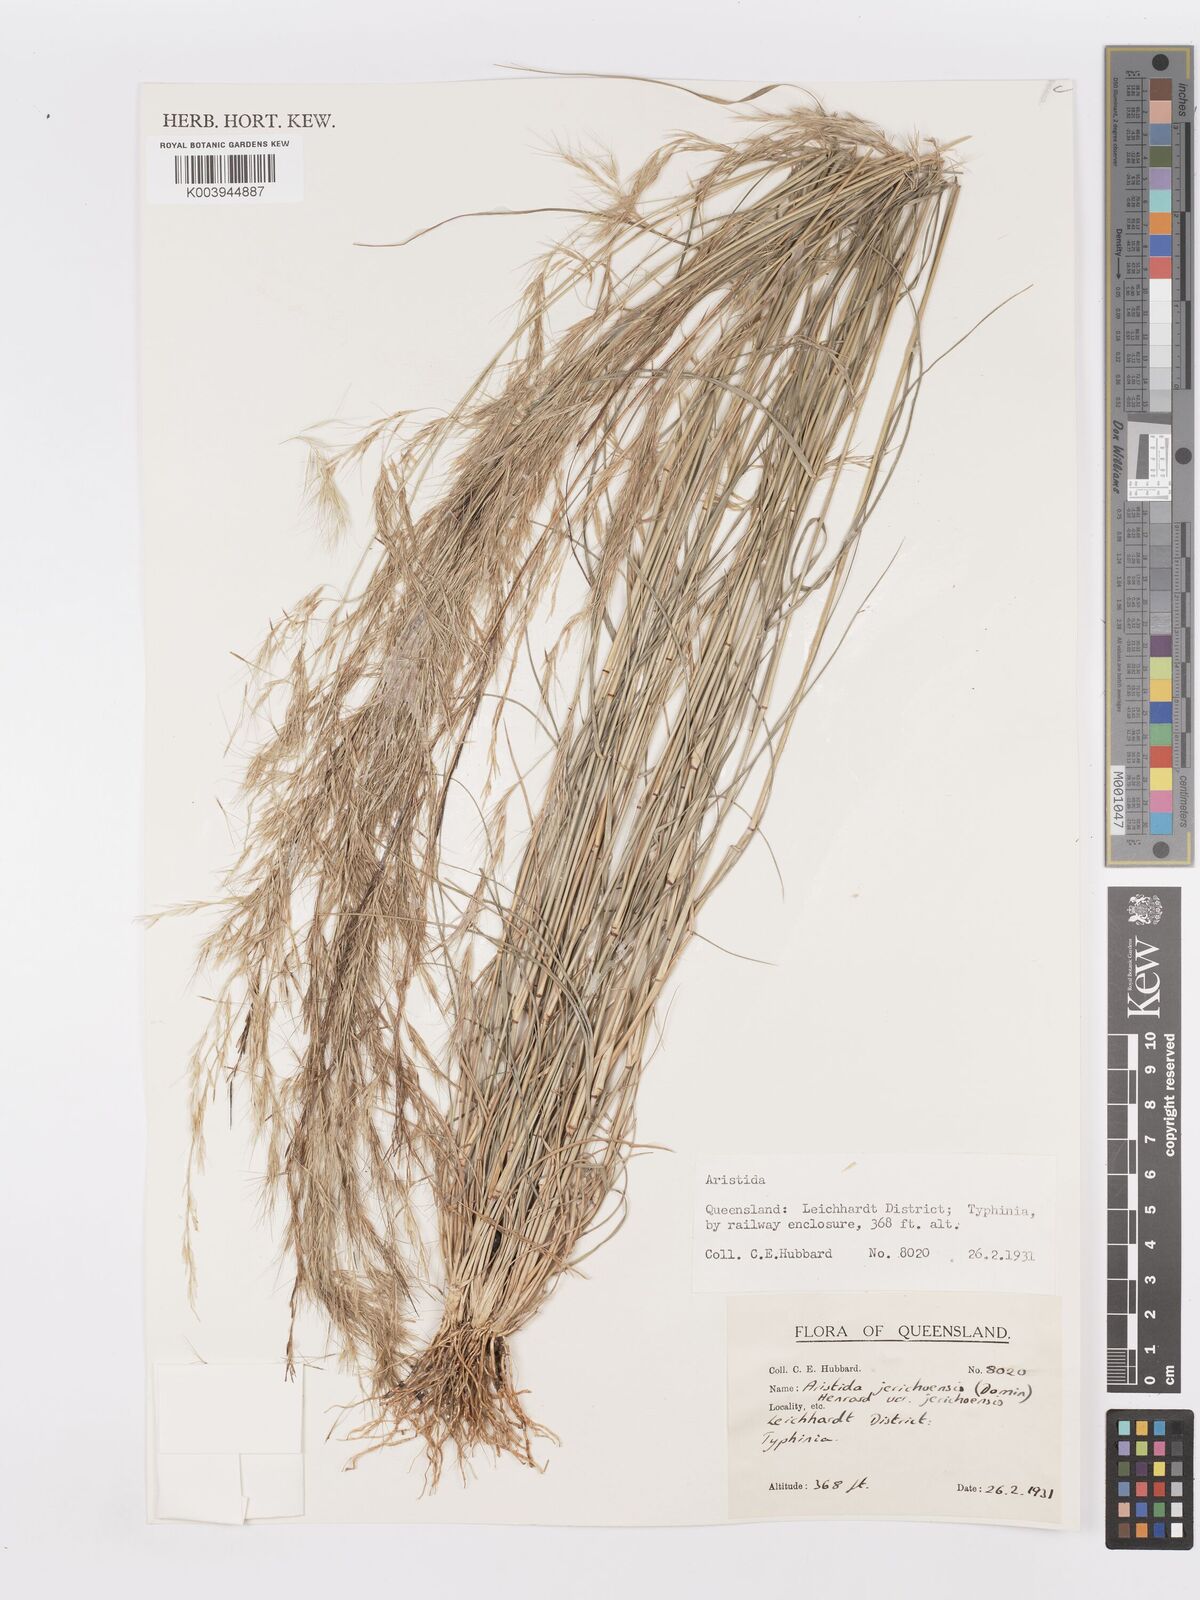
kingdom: Plantae
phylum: Tracheophyta
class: Liliopsida
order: Poales
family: Poaceae
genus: Aristida
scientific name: Aristida jerichoensis
